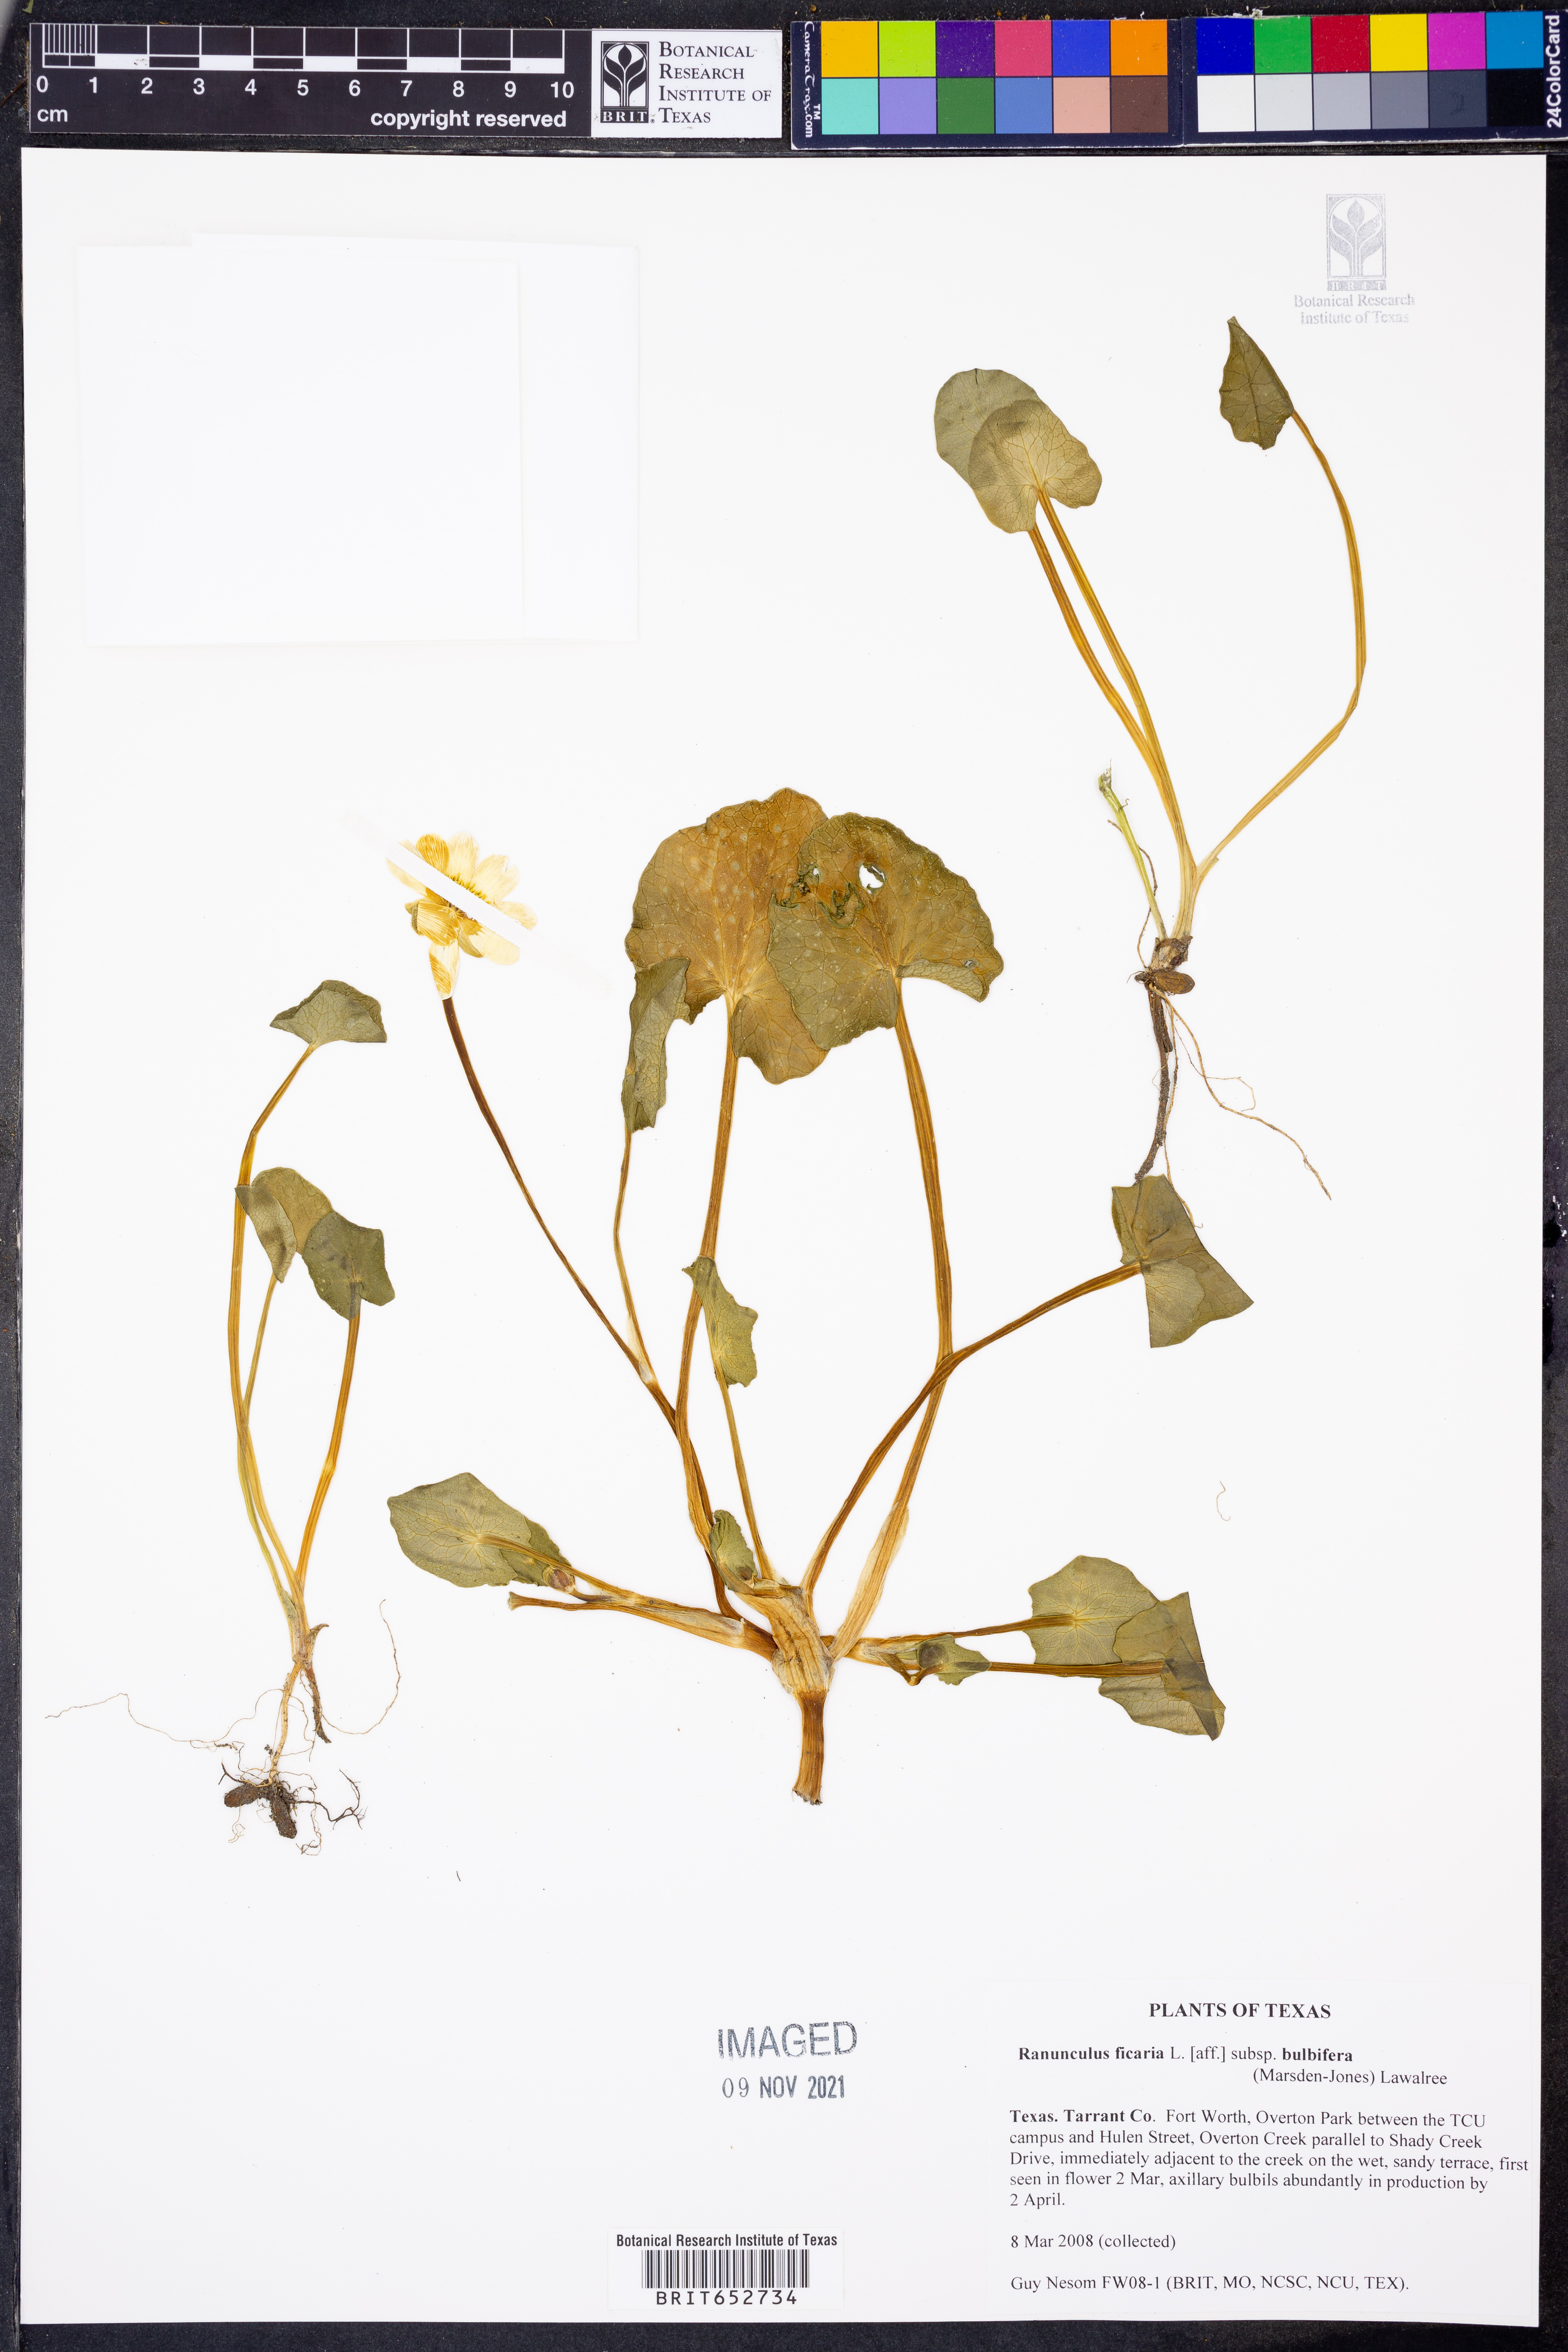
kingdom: Plantae
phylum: Tracheophyta
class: Magnoliopsida
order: Ranunculales
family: Ranunculaceae
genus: Ficaria
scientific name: Ficaria verna
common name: Lesser celandine
